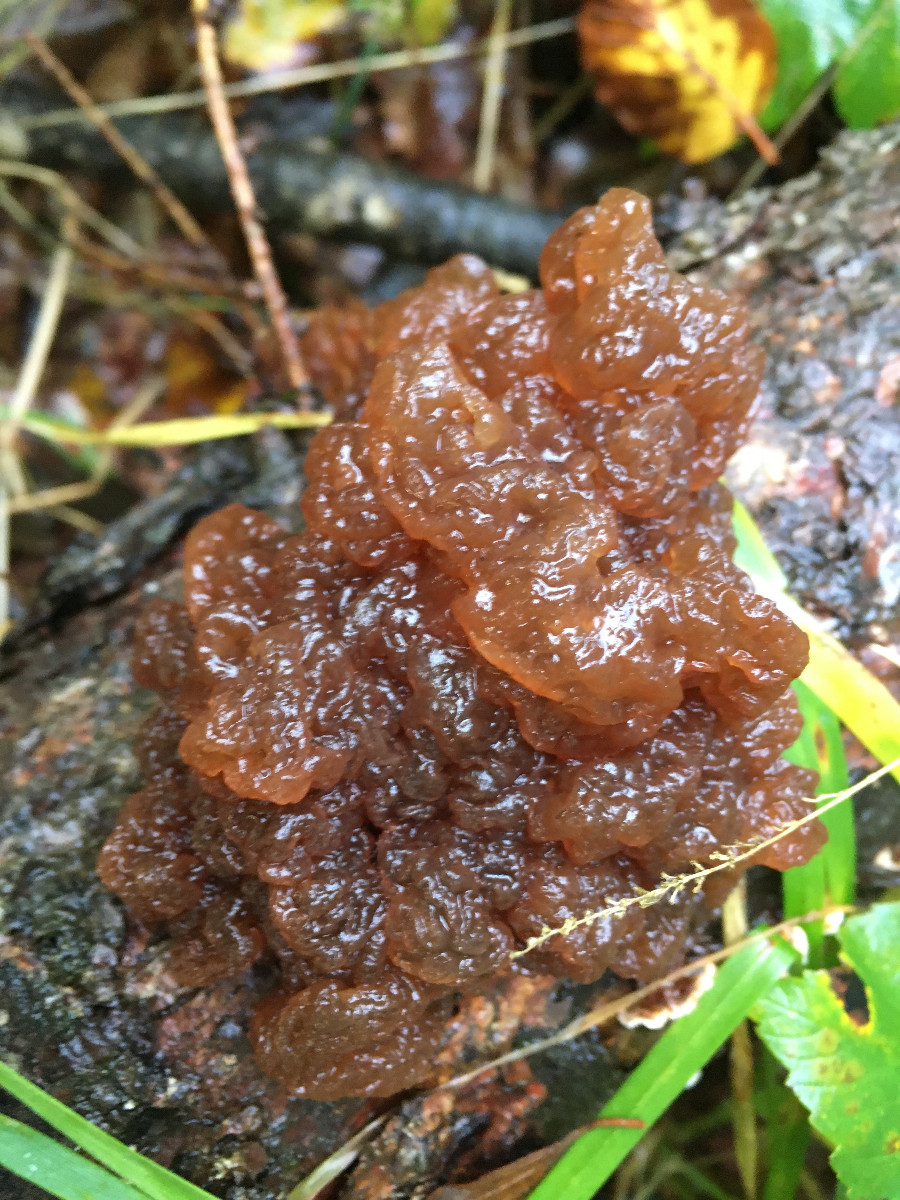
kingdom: Fungi
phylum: Basidiomycota
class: Agaricomycetes
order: Auriculariales
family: Auriculariaceae
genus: Exidia
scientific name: Exidia saccharina
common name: kandis-bævretop
